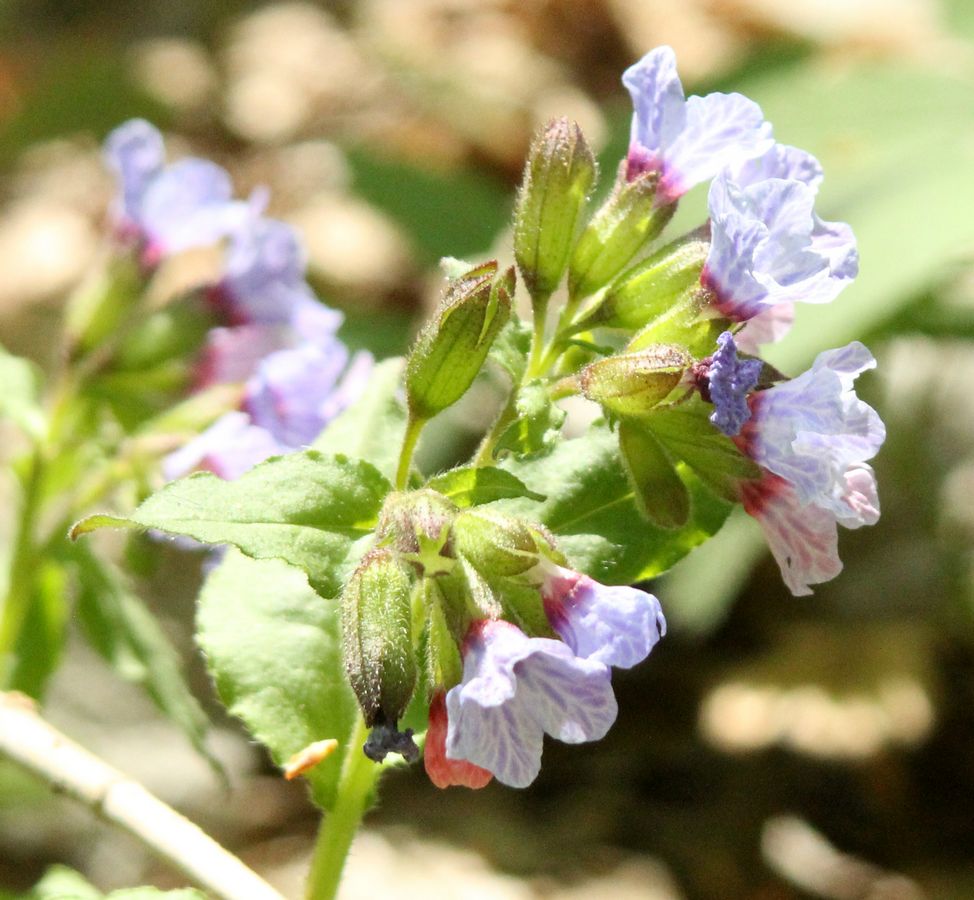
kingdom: Plantae
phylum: Tracheophyta
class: Magnoliopsida
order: Boraginales
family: Boraginaceae
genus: Pulmonaria
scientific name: Pulmonaria obscura
